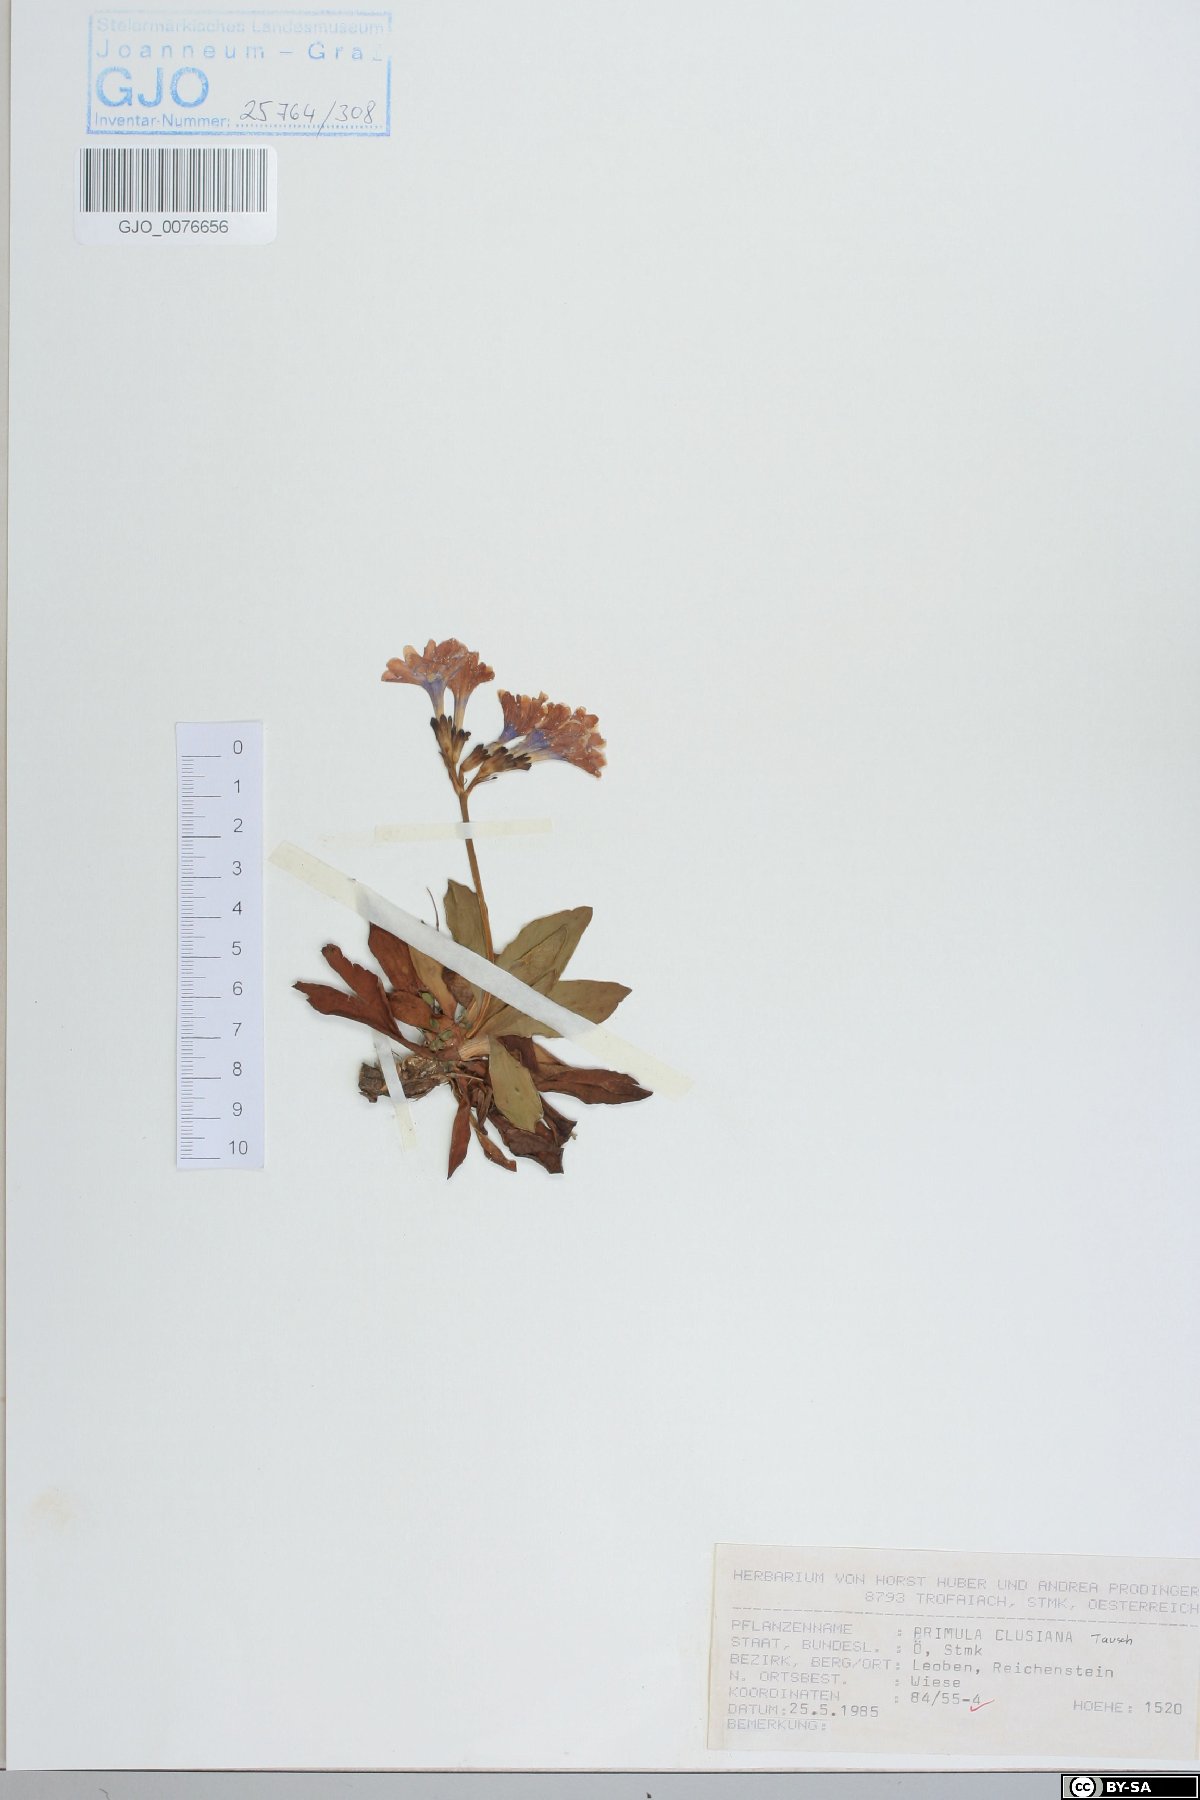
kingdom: Plantae
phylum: Tracheophyta
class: Magnoliopsida
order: Ericales
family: Primulaceae
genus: Primula
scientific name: Primula clusiana
